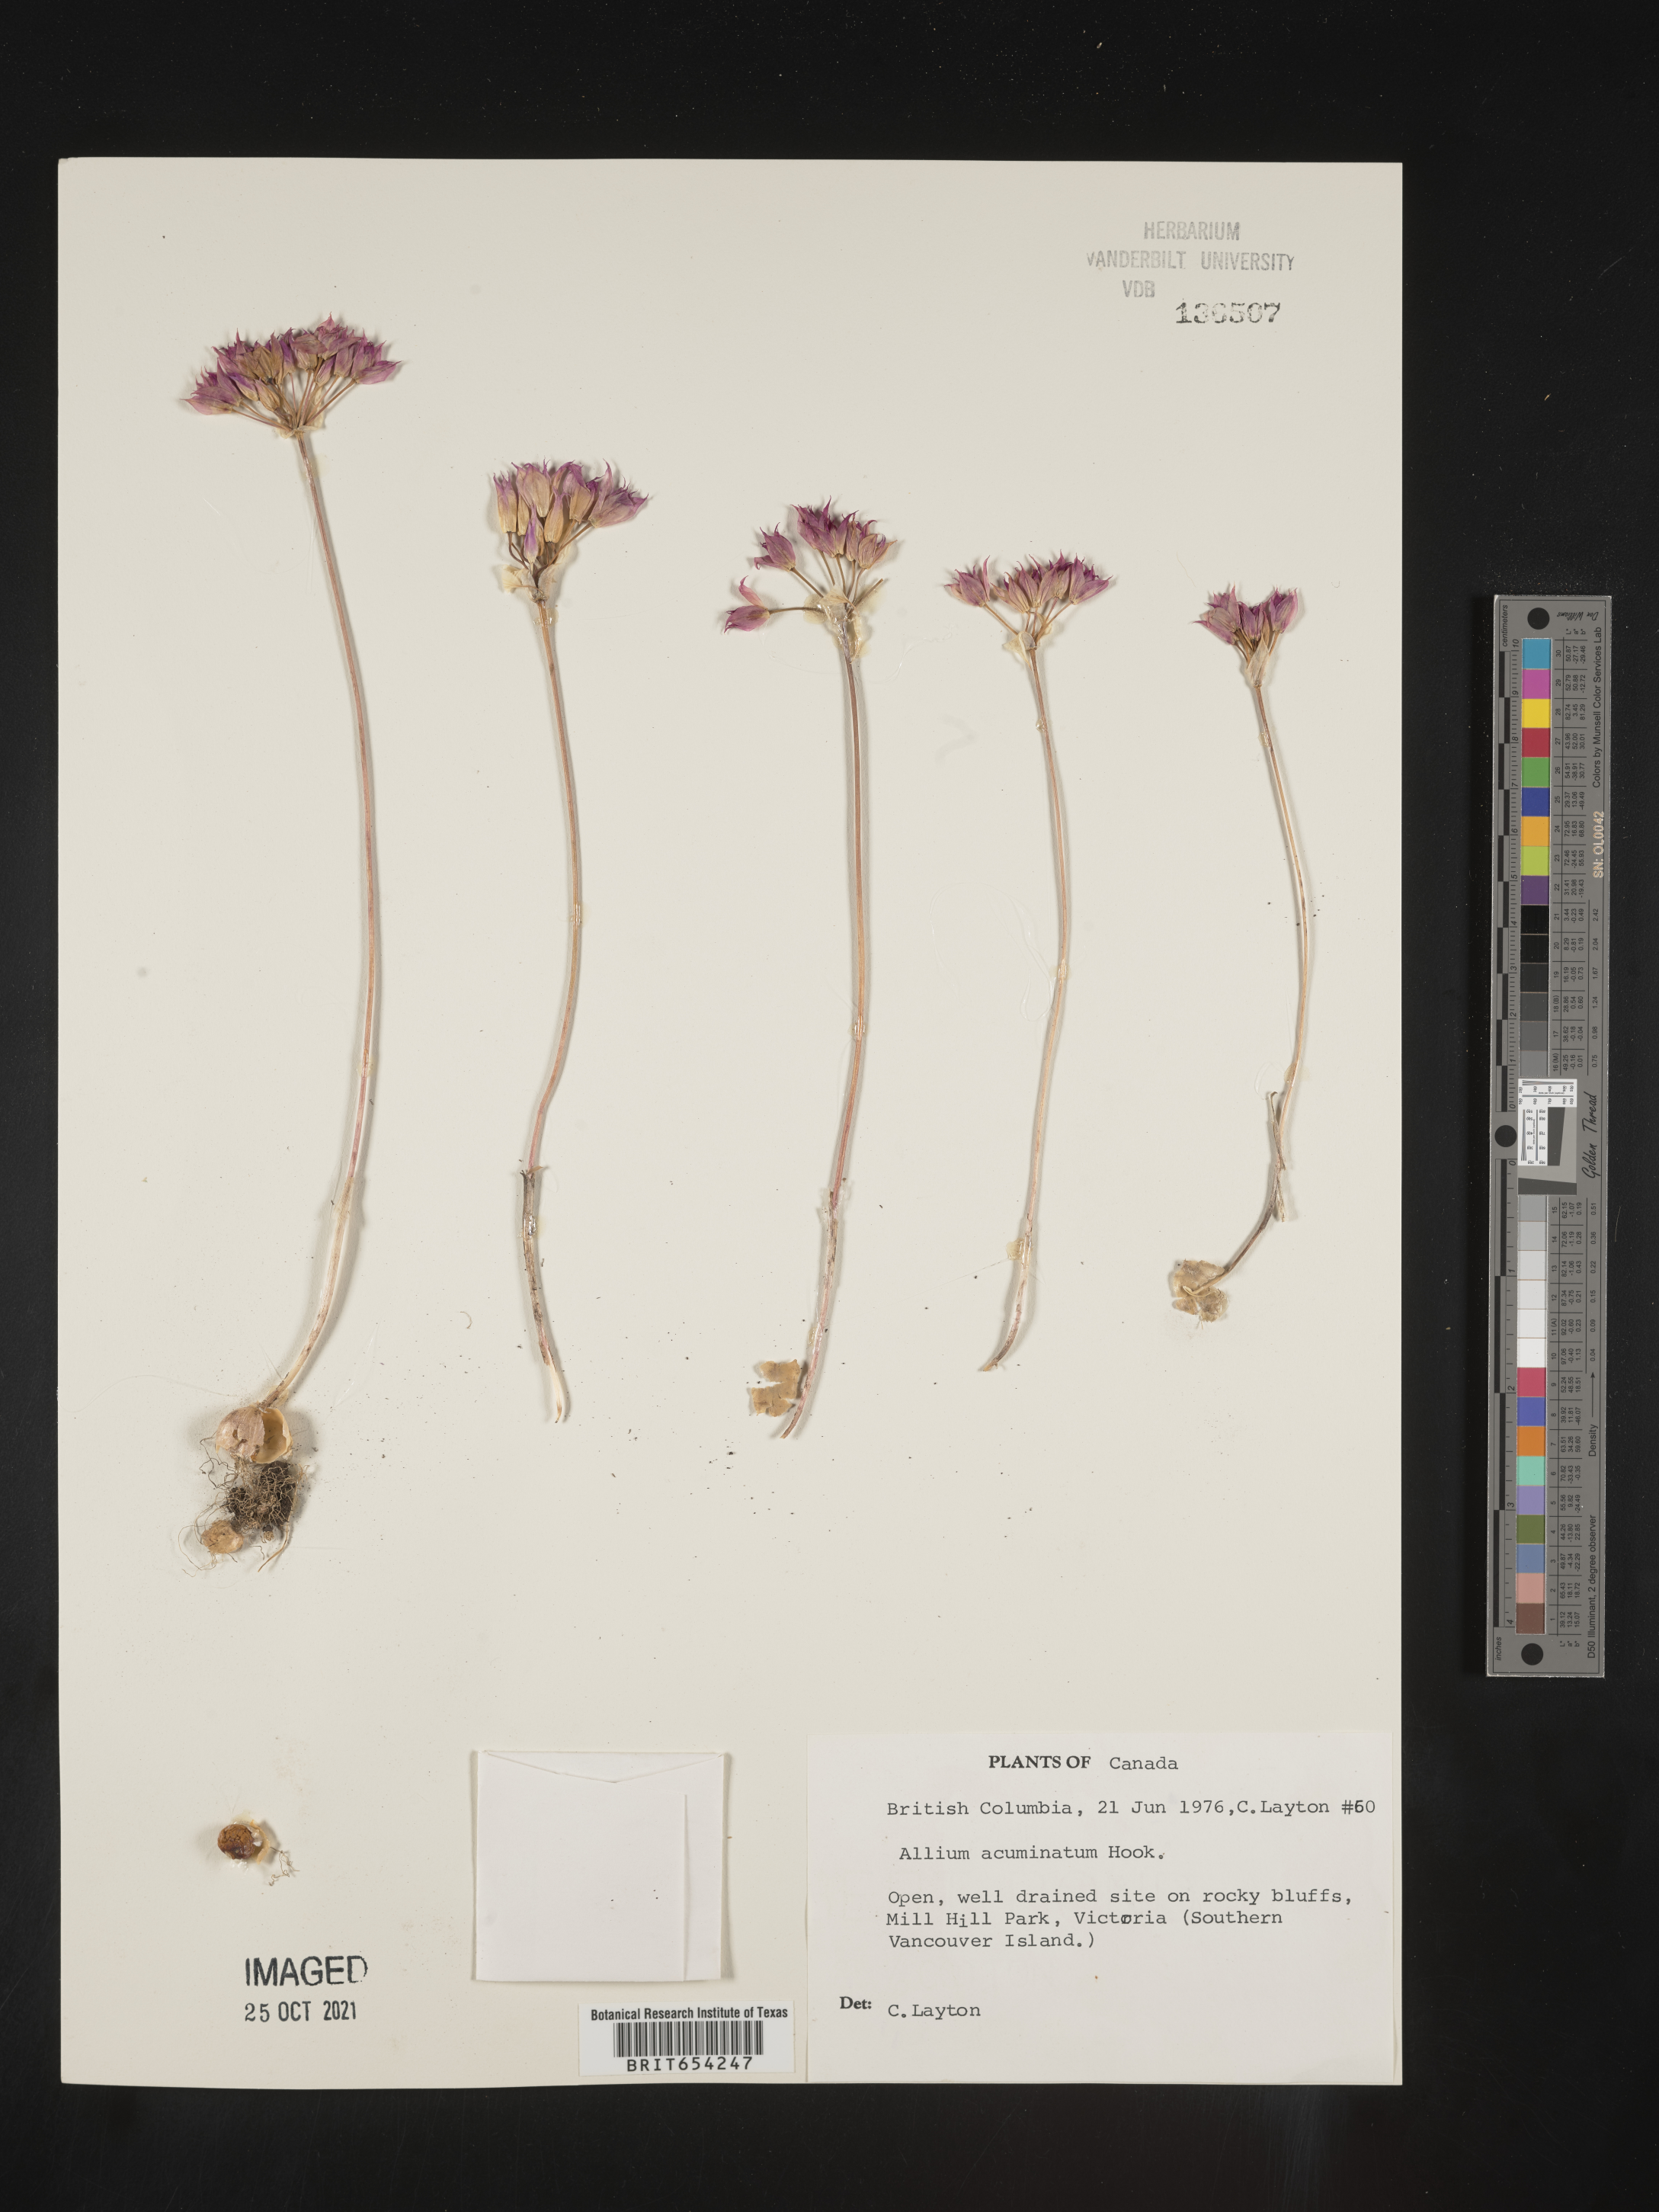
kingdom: Plantae
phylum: Tracheophyta
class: Liliopsida
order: Asparagales
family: Amaryllidaceae
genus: Allium
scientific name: Allium acuminatum
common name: Hooker's onion
